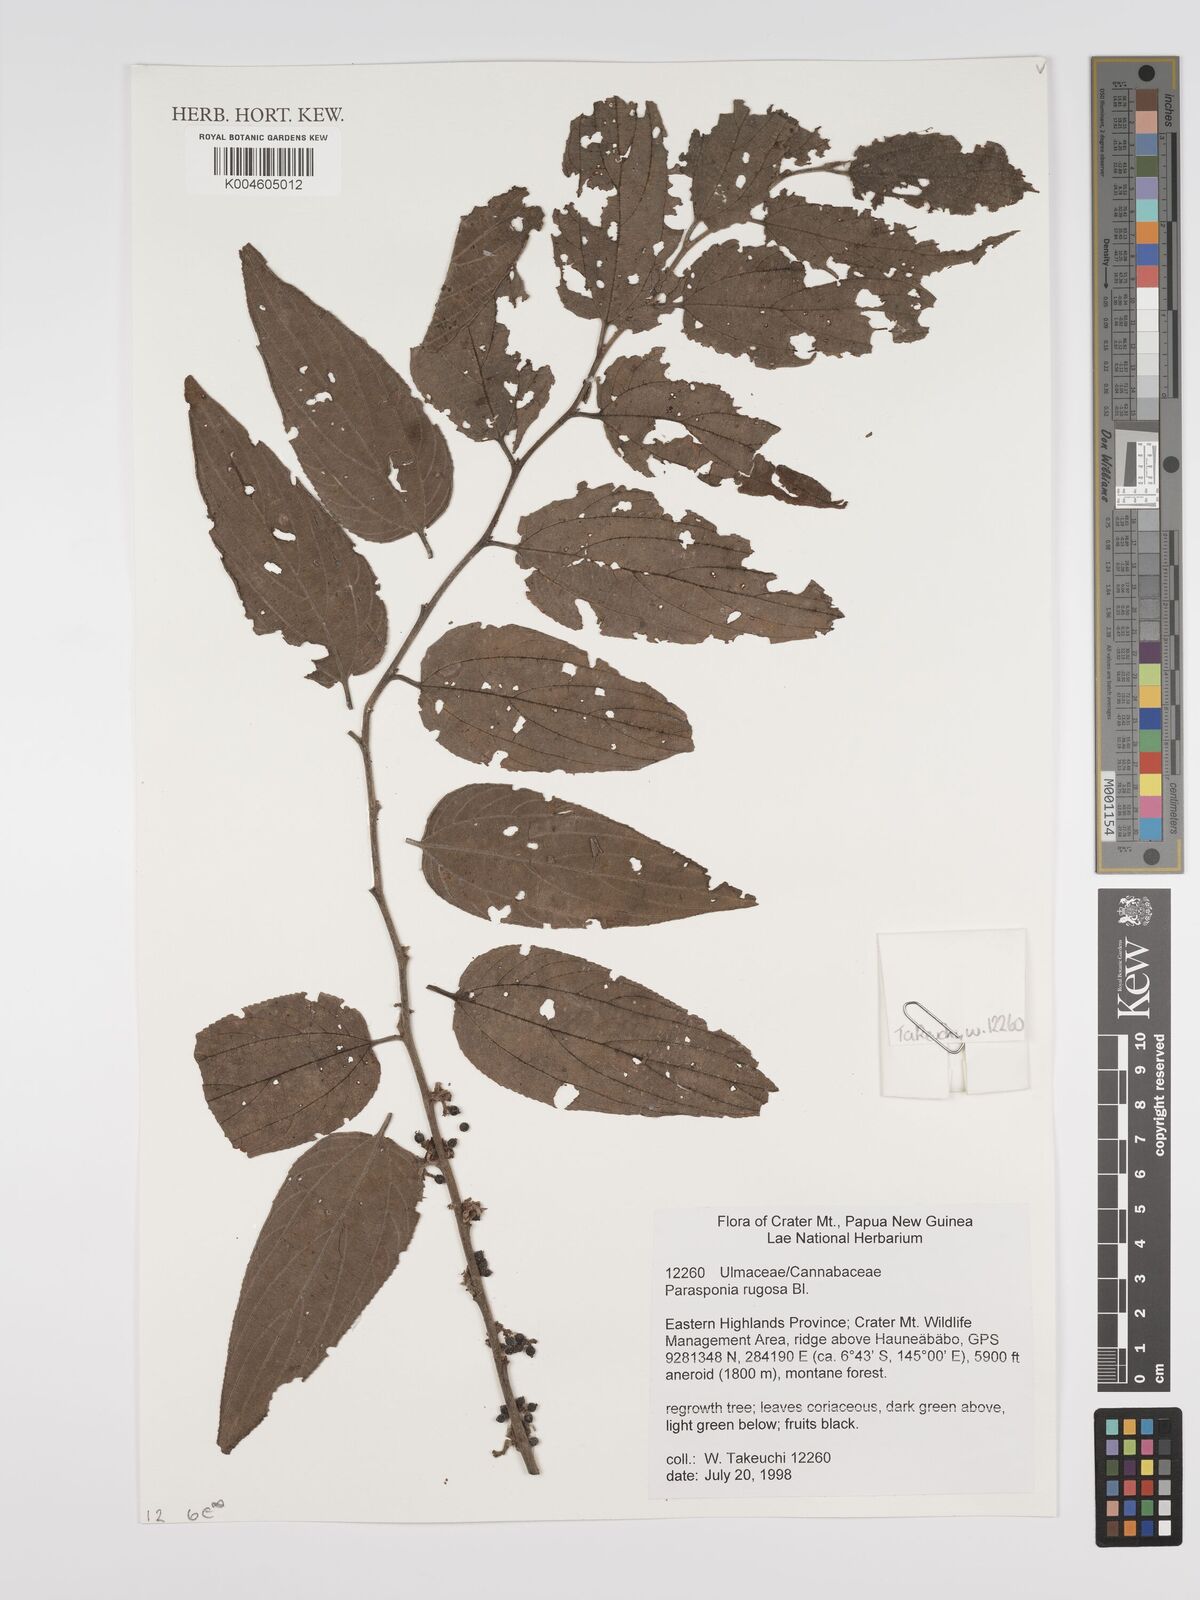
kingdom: Plantae
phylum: Tracheophyta
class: Magnoliopsida
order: Rosales
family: Cannabaceae
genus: Trema
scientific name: Trema eurhynchum
